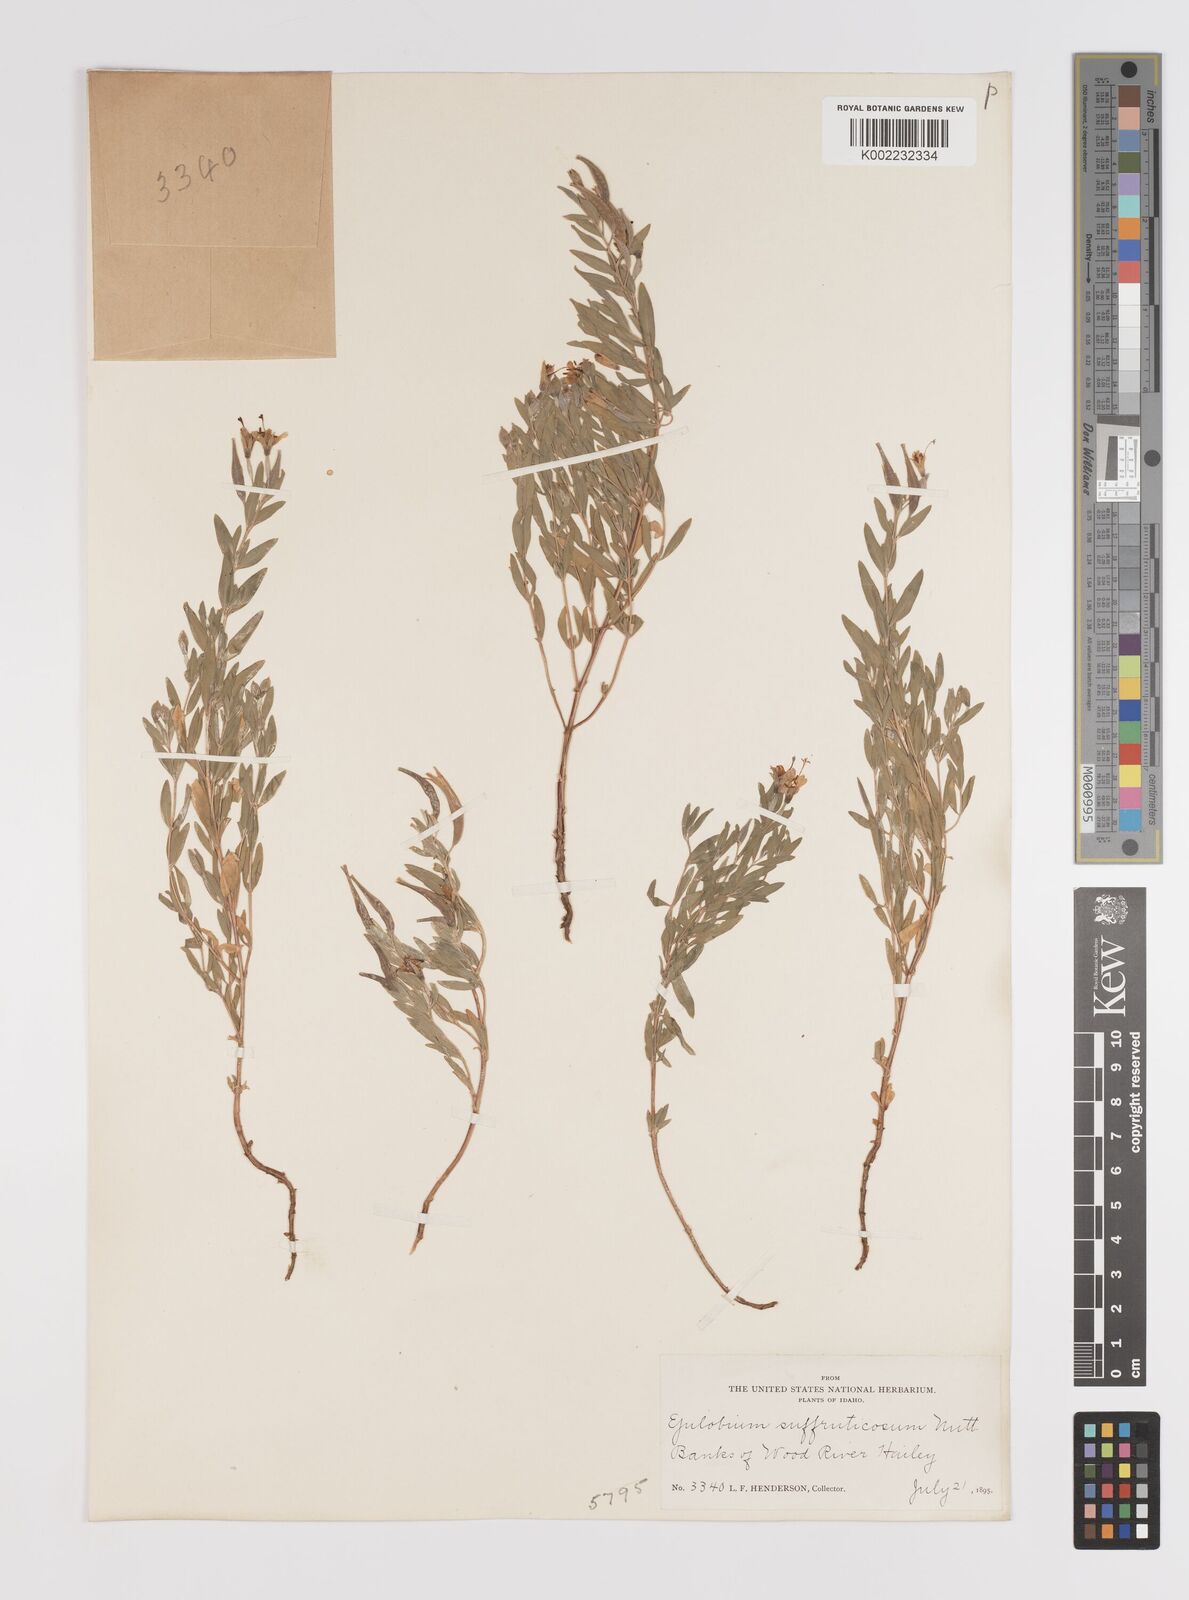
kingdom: Plantae
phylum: Tracheophyta
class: Magnoliopsida
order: Myrtales
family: Onagraceae
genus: Epilobium
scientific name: Epilobium suffruticosum
